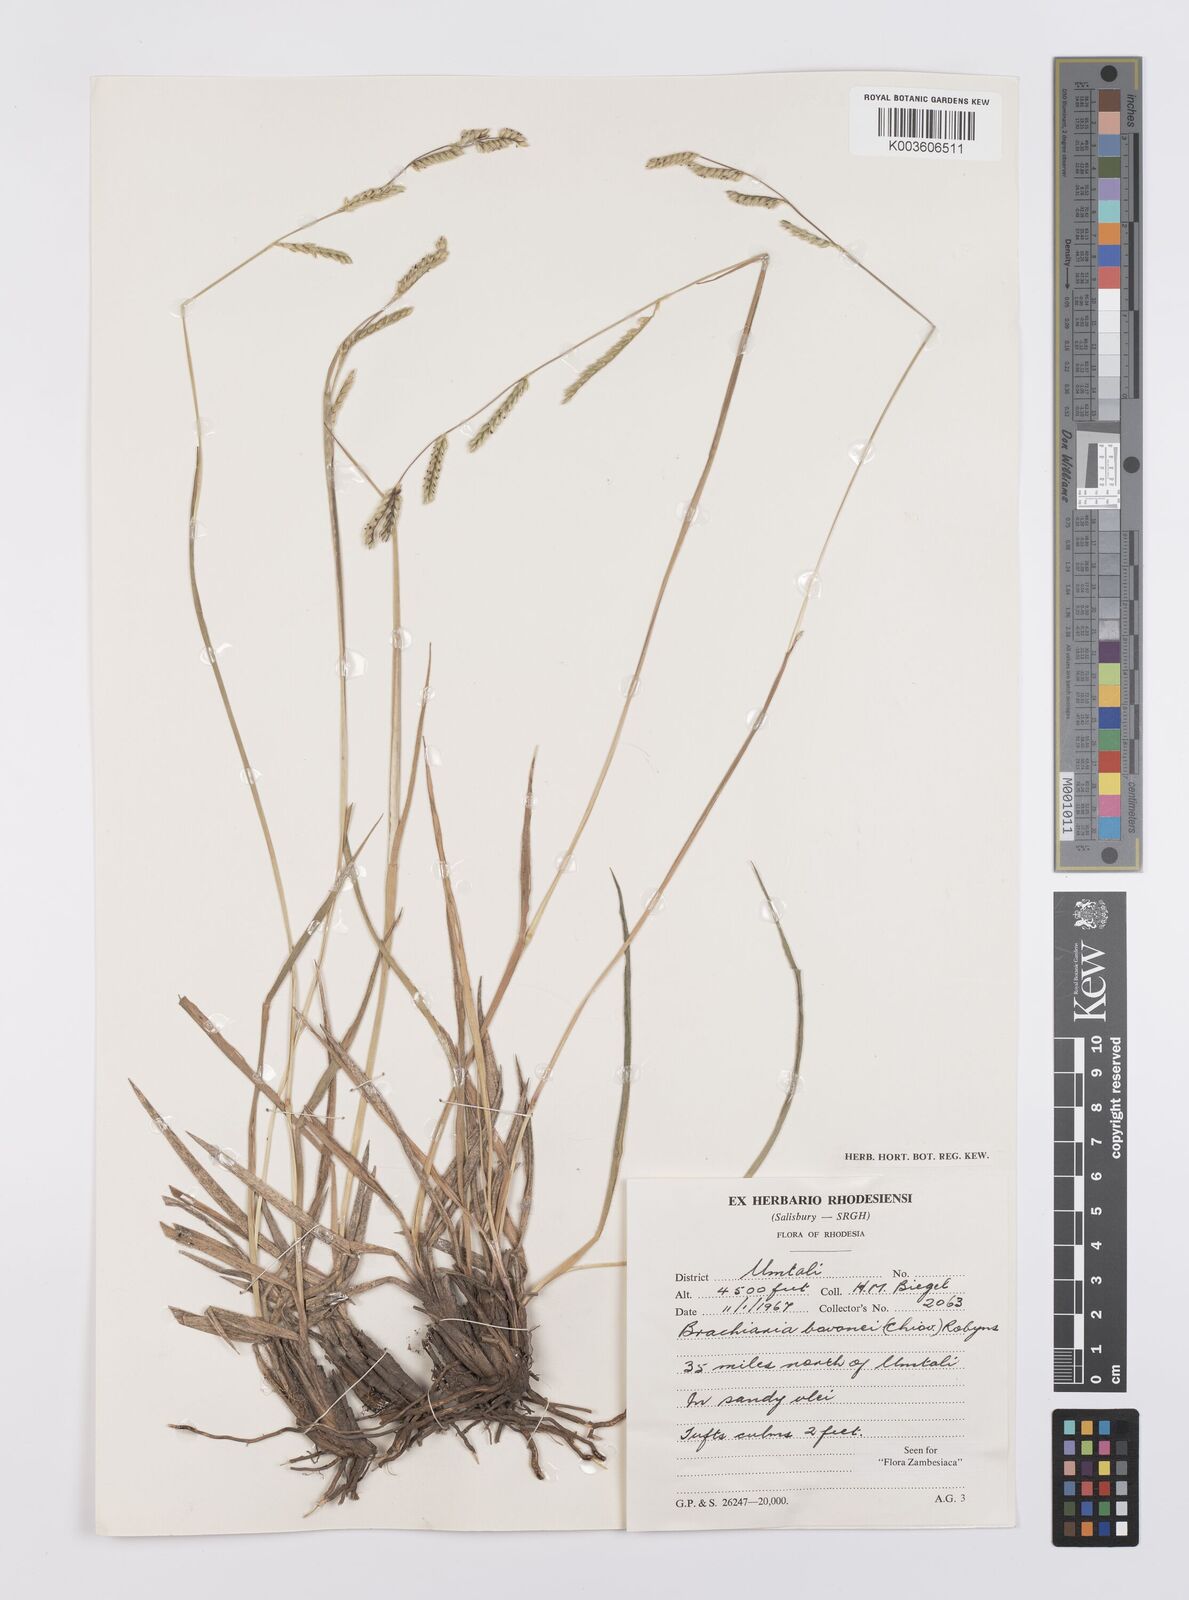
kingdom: Plantae
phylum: Tracheophyta
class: Liliopsida
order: Poales
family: Poaceae
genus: Urochloa
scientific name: Urochloa bovonei
